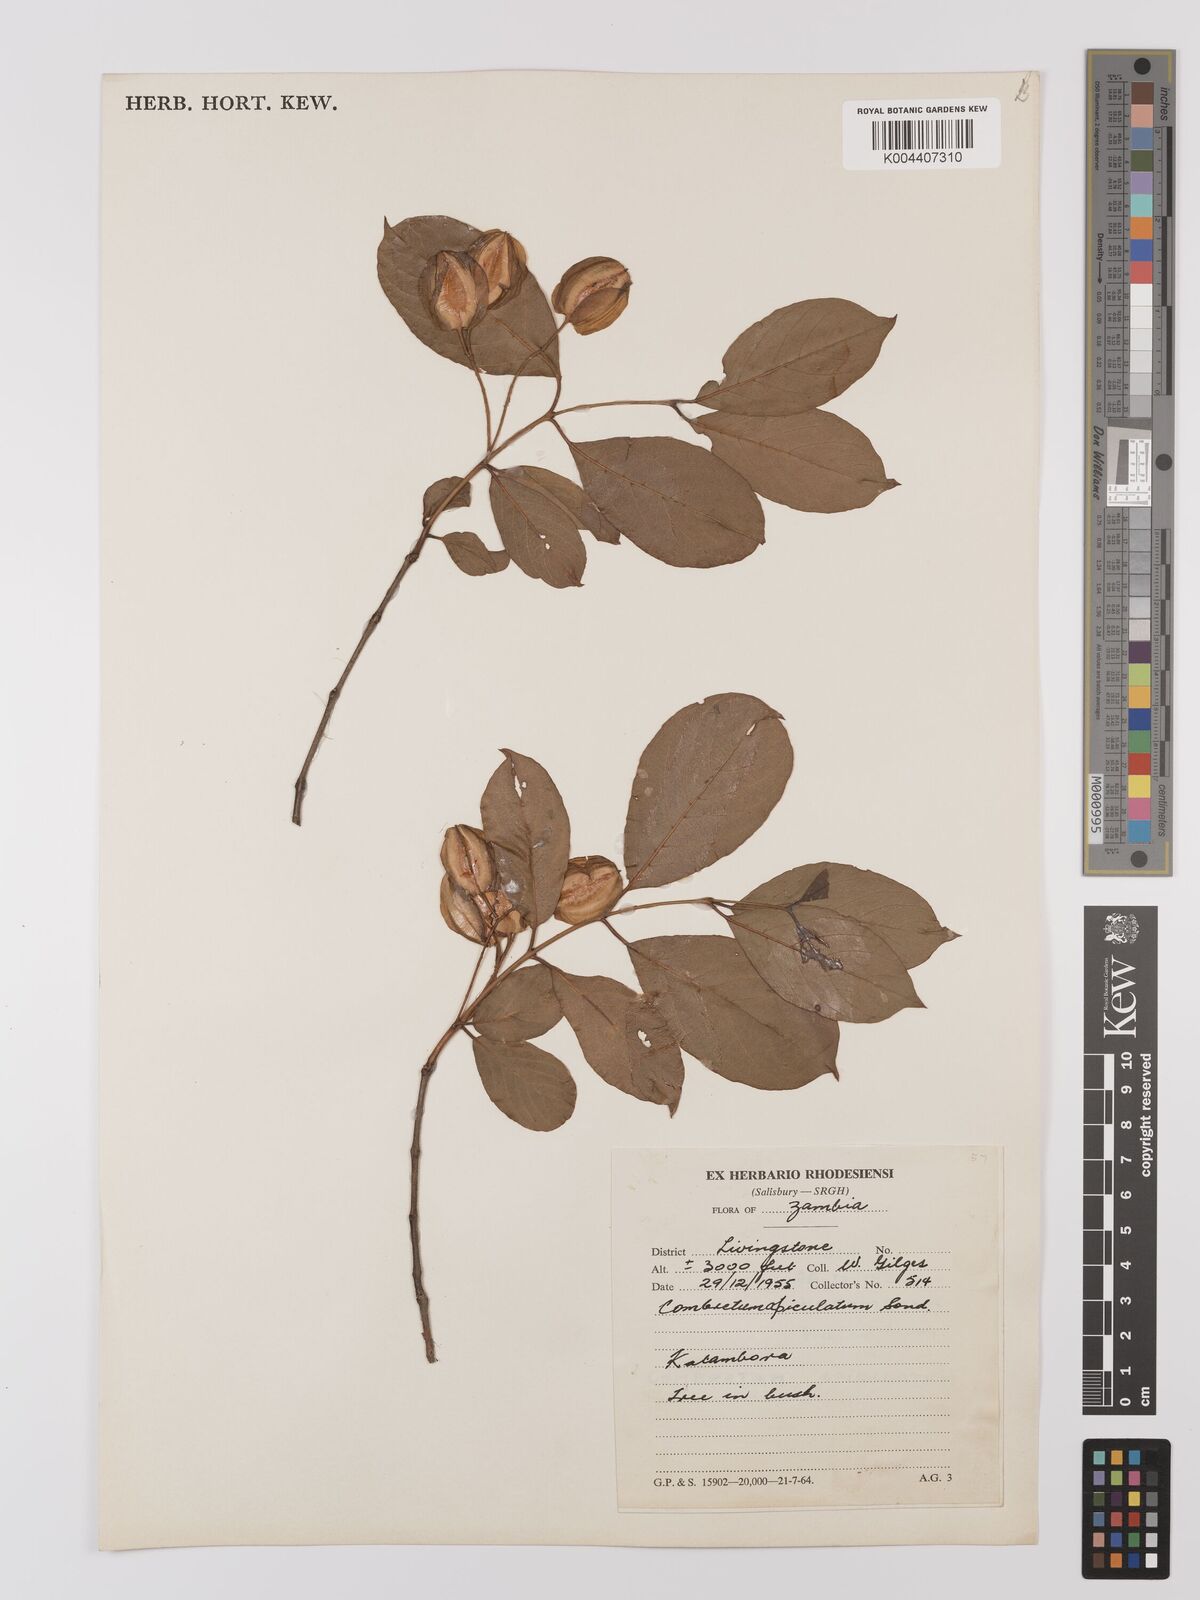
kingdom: Plantae
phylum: Tracheophyta
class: Magnoliopsida
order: Myrtales
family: Combretaceae
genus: Combretum
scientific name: Combretum apiculatum
